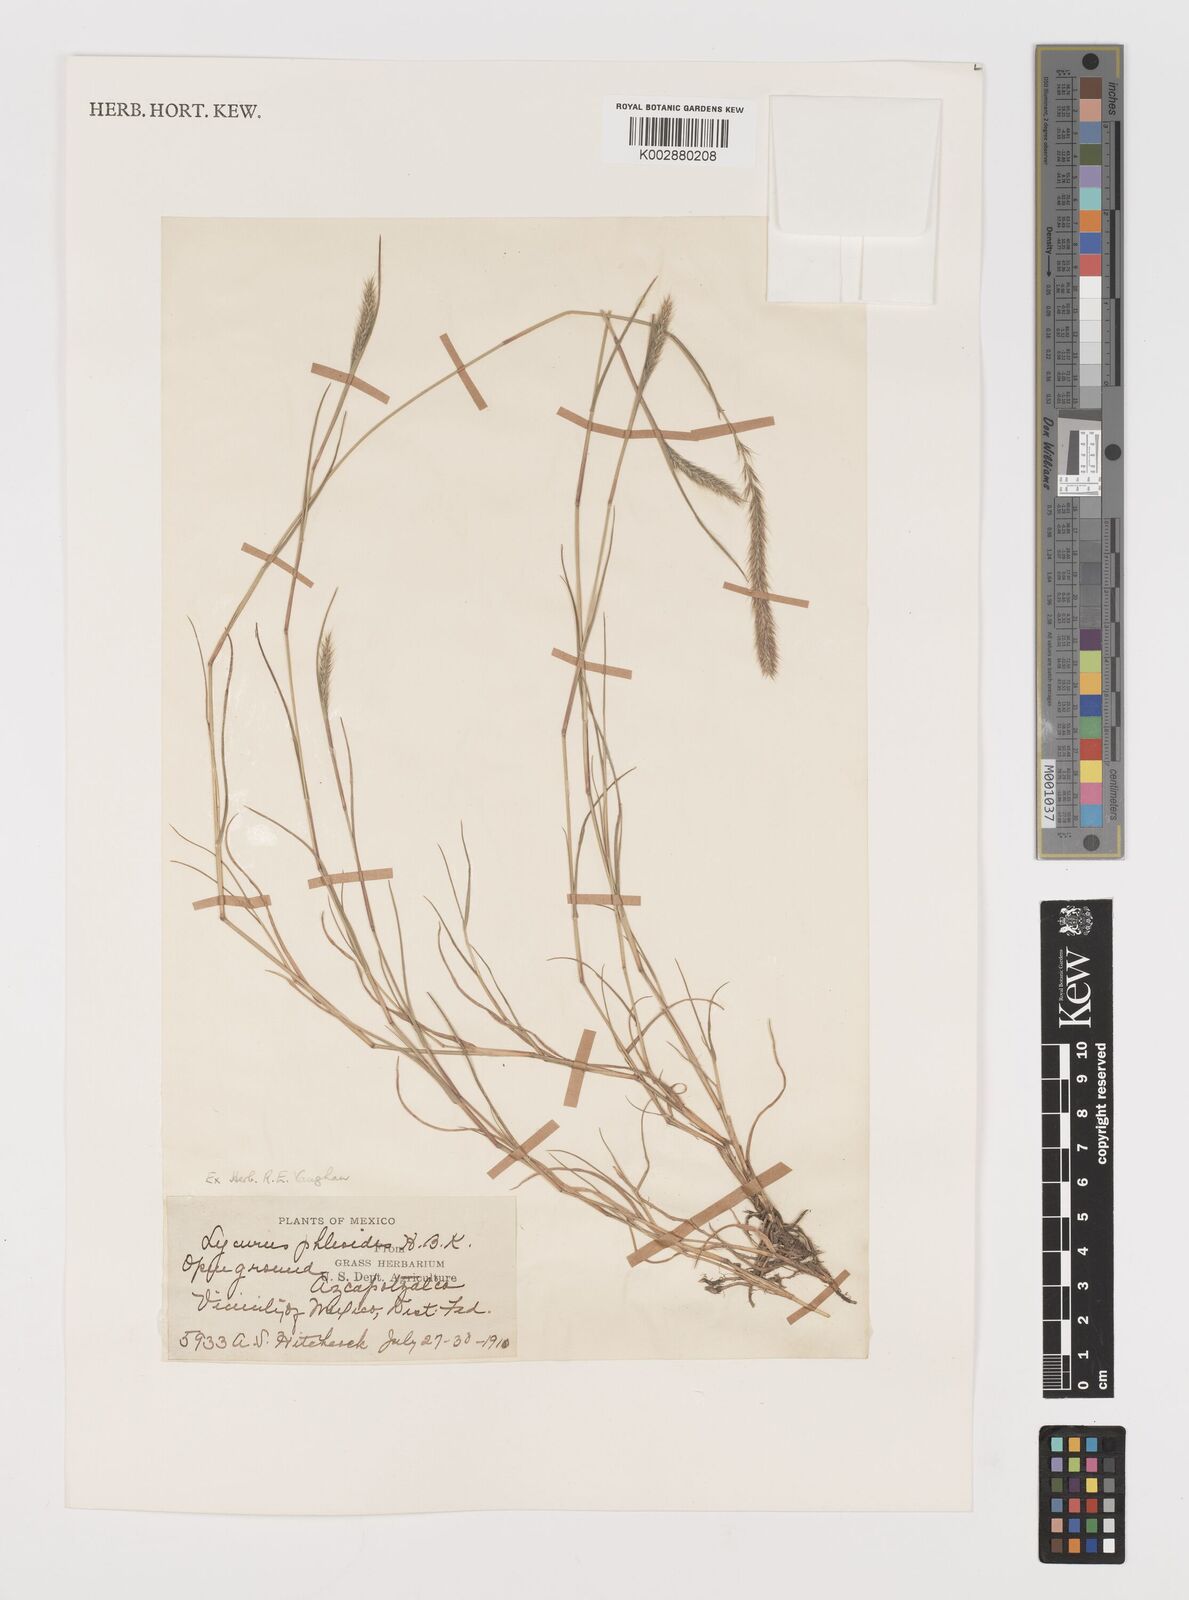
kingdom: Plantae
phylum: Tracheophyta
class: Liliopsida
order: Poales
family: Poaceae
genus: Muhlenbergia
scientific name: Muhlenbergia phleoides
